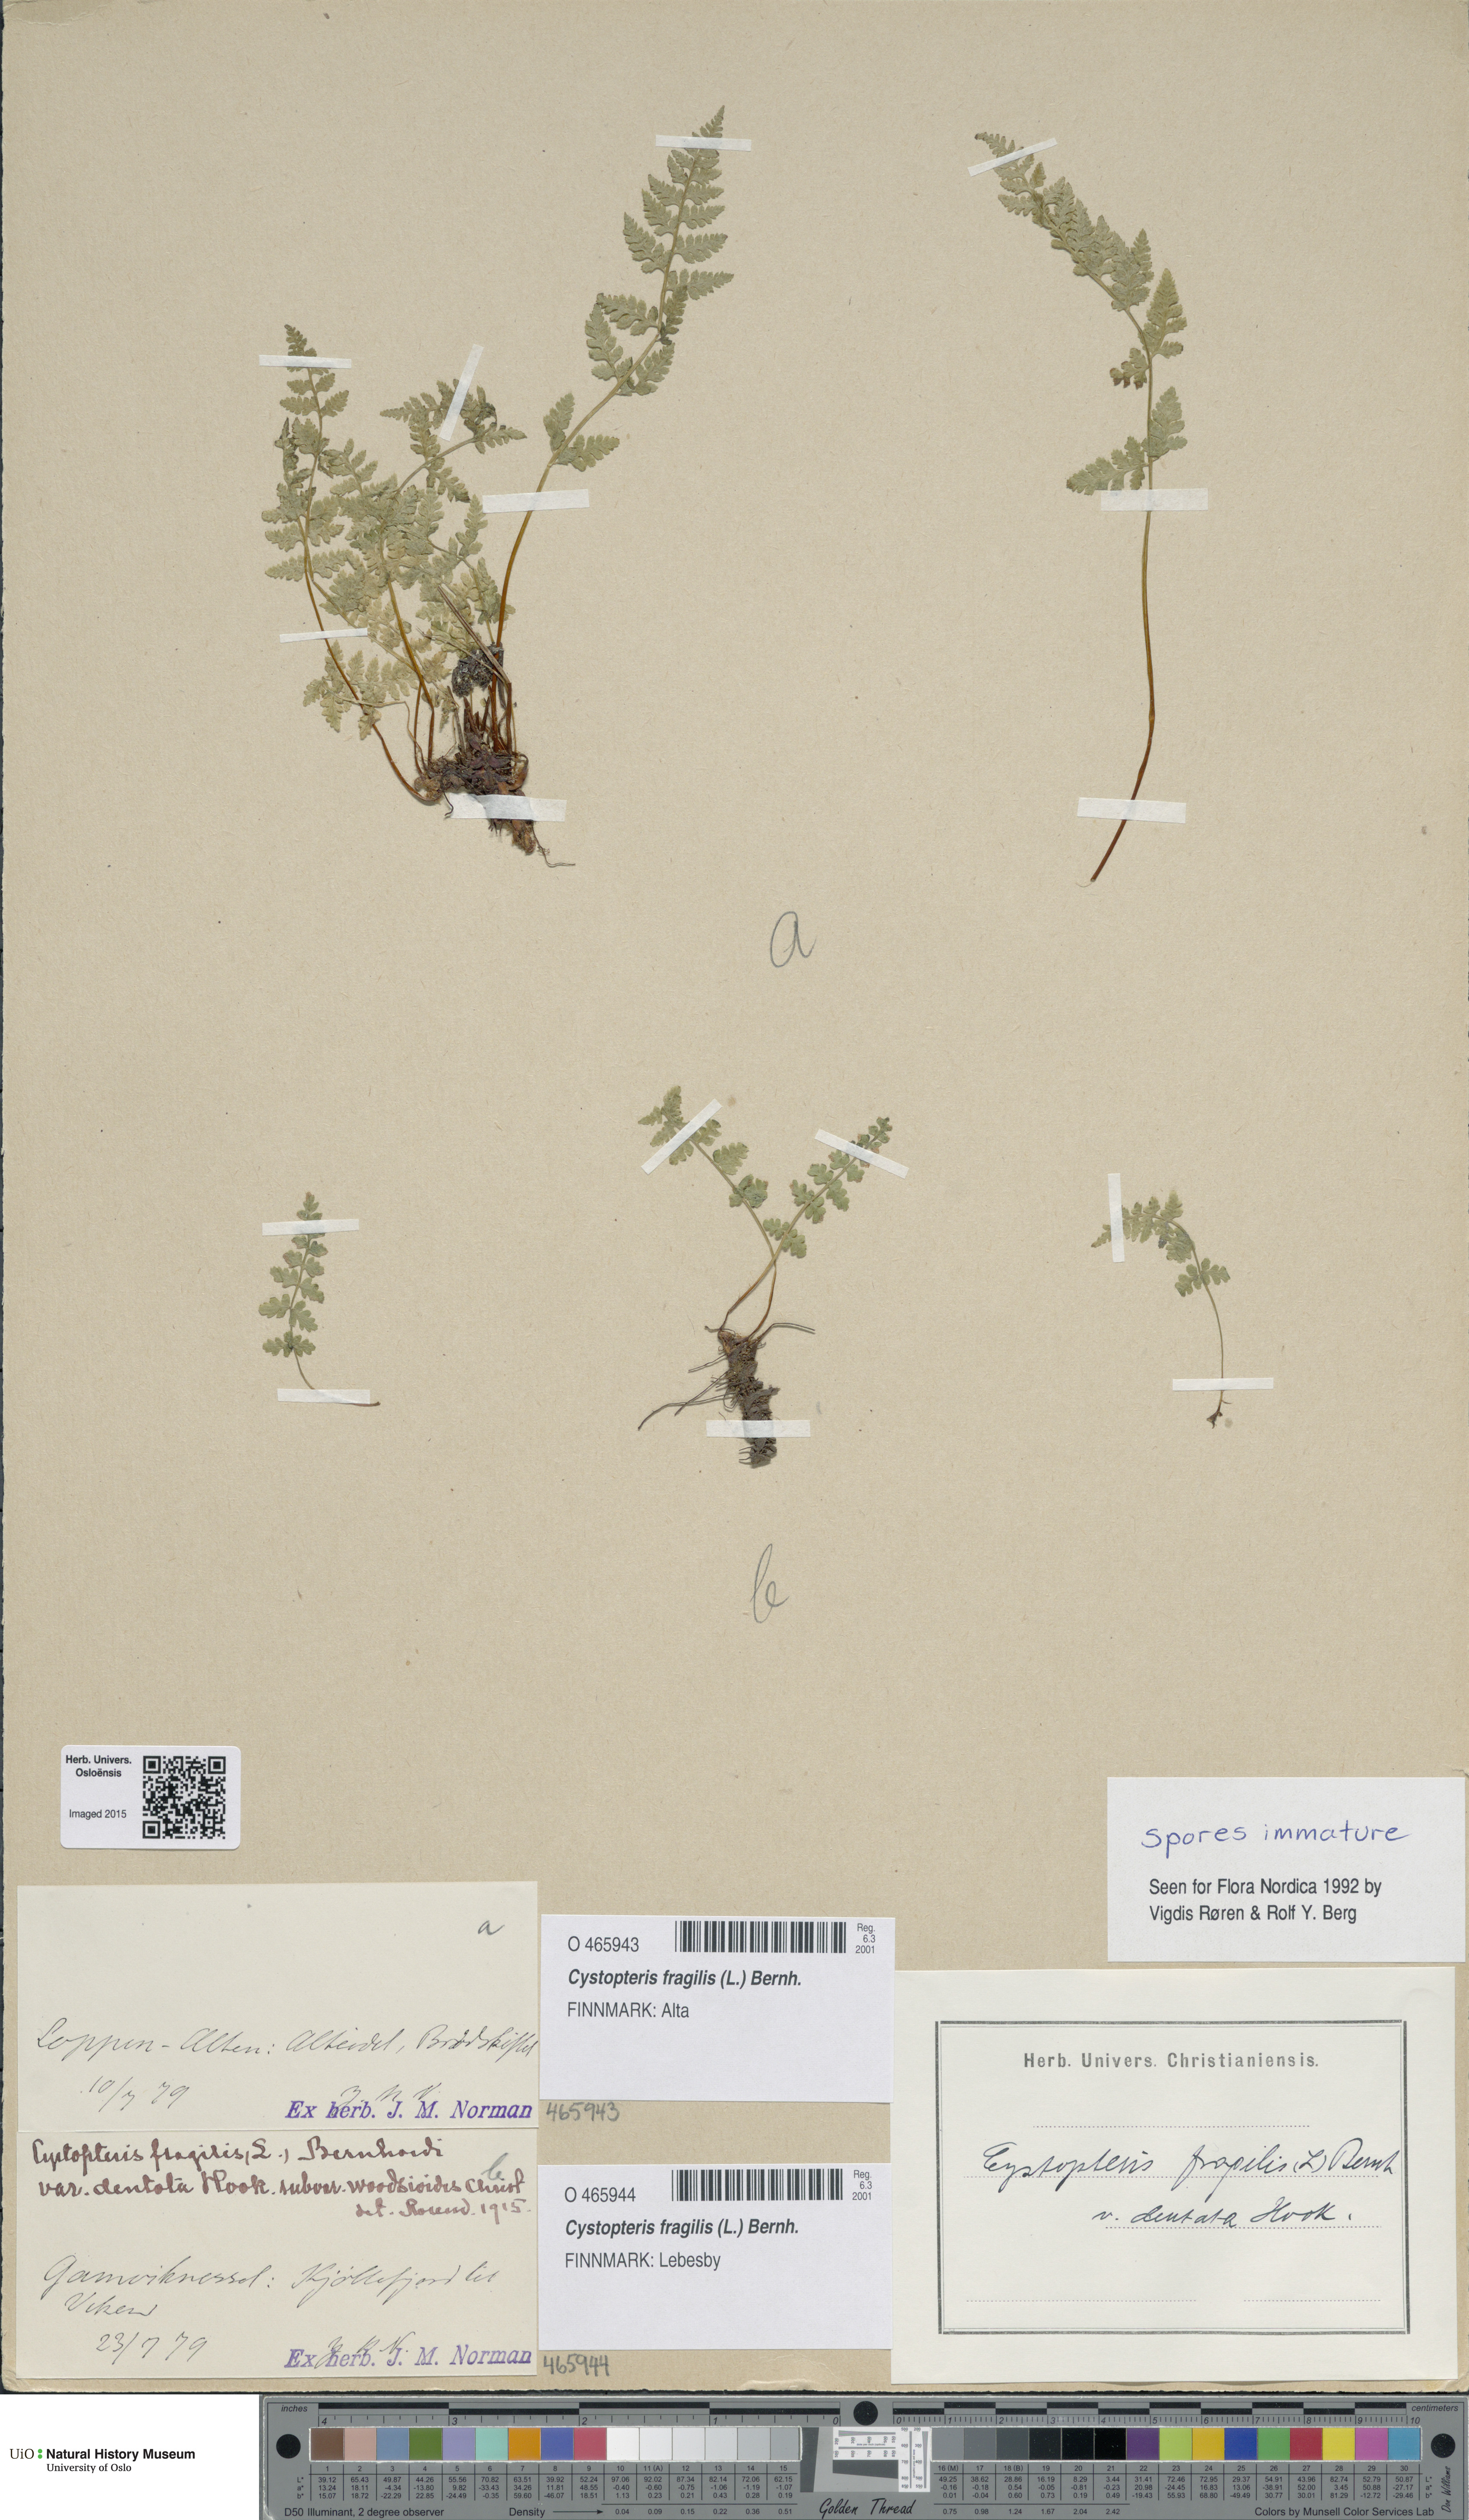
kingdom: Plantae
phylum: Tracheophyta
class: Polypodiopsida
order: Polypodiales
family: Cystopteridaceae
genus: Cystopteris
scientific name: Cystopteris fragilis
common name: Brittle bladder fern
